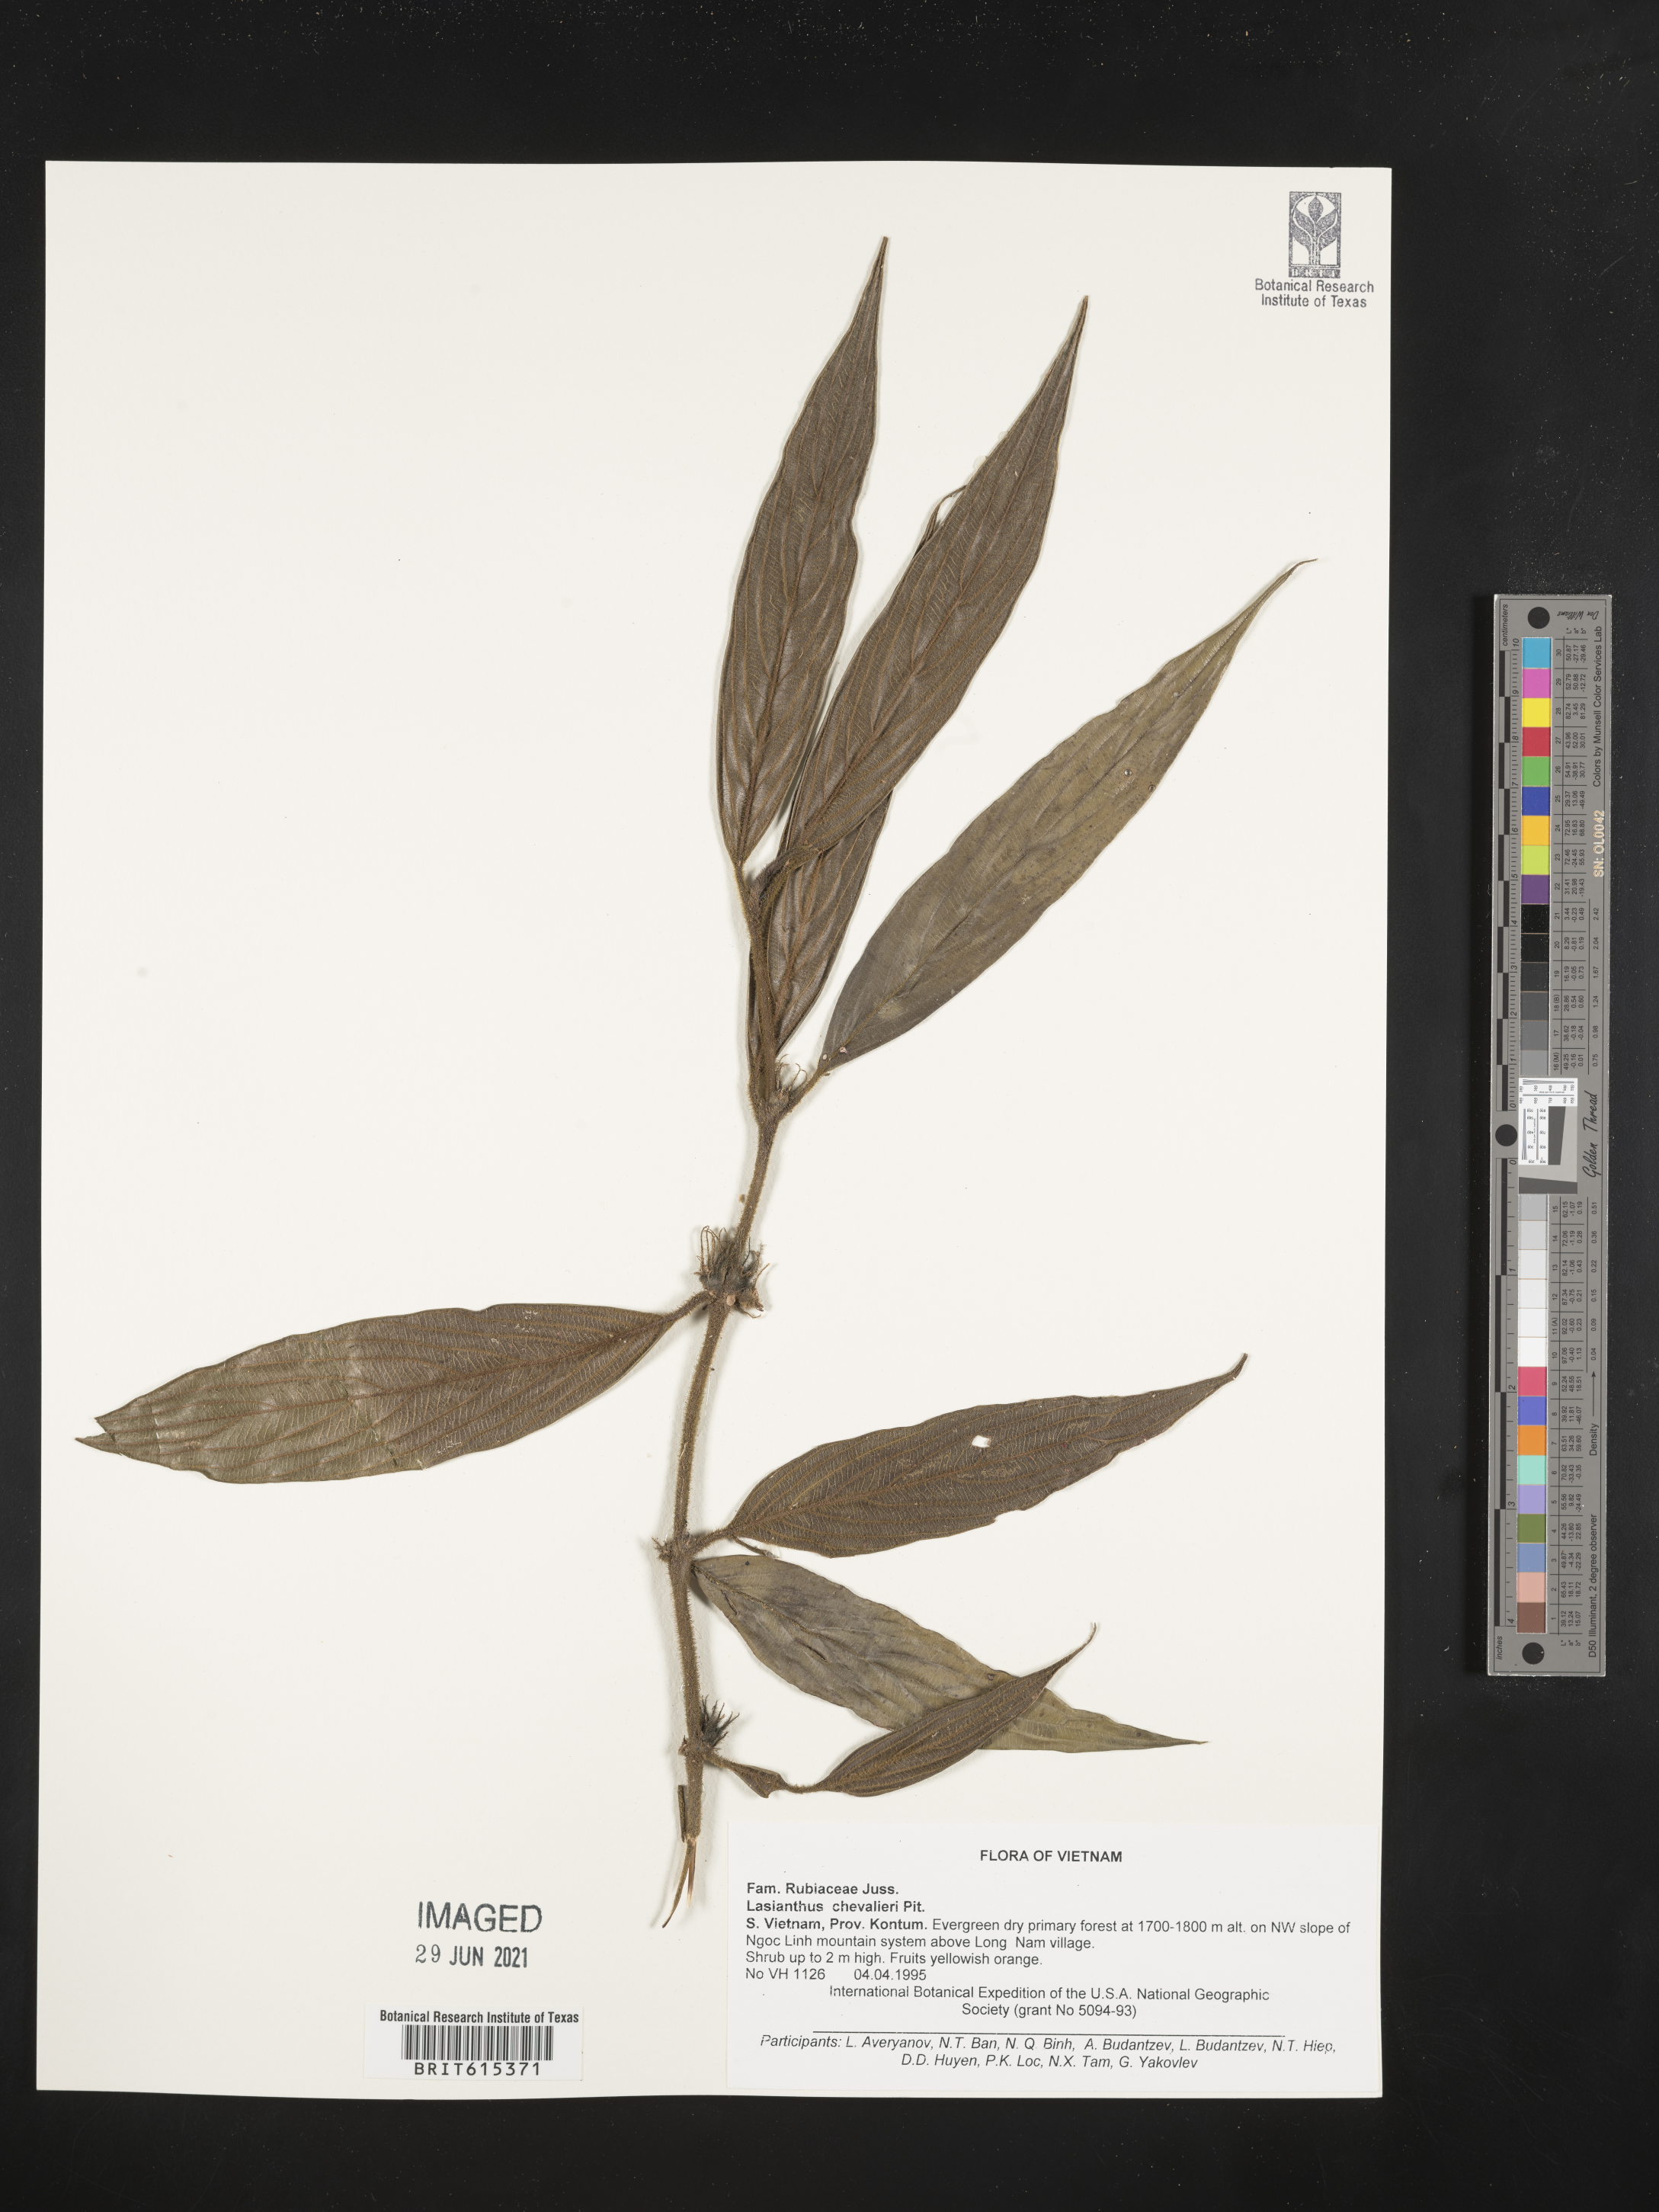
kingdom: Plantae
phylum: Tracheophyta
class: Magnoliopsida
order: Gentianales
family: Rubiaceae
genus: Lasianthus
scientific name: Lasianthus chevalieri
